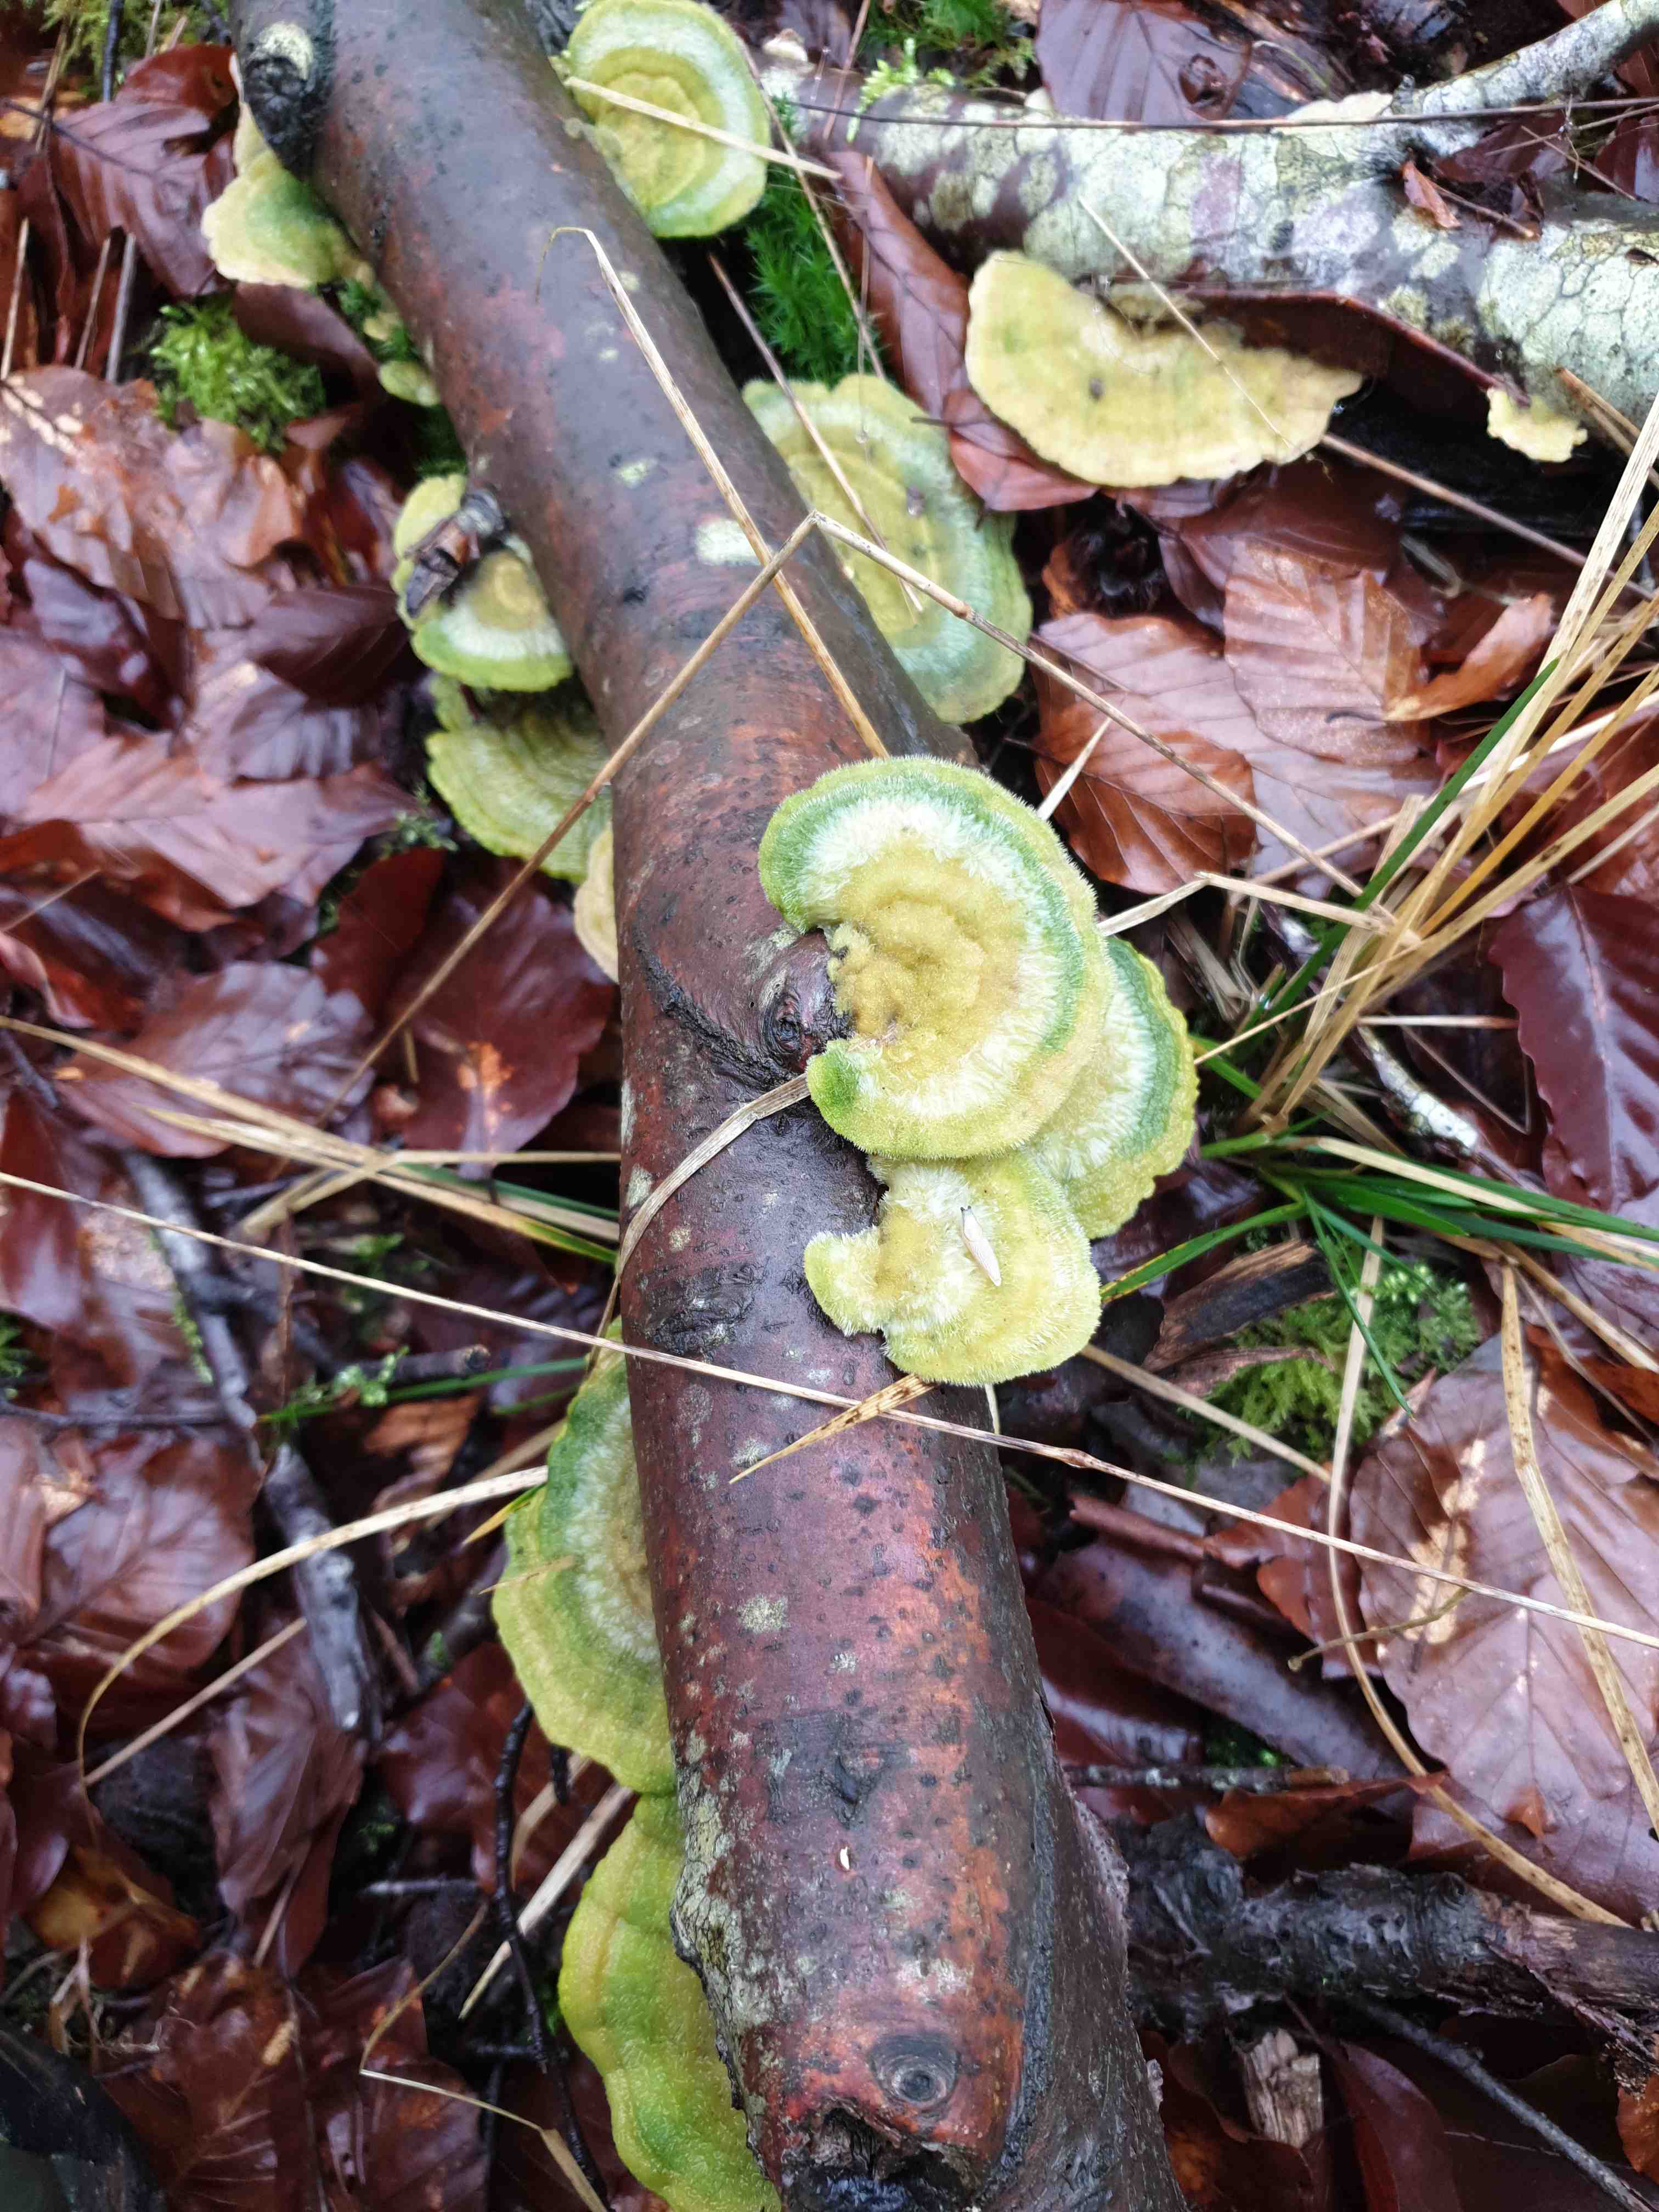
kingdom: Fungi
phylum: Basidiomycota
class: Agaricomycetes
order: Polyporales
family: Polyporaceae
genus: Trametes
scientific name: Trametes hirsuta
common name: håret læderporesvamp
